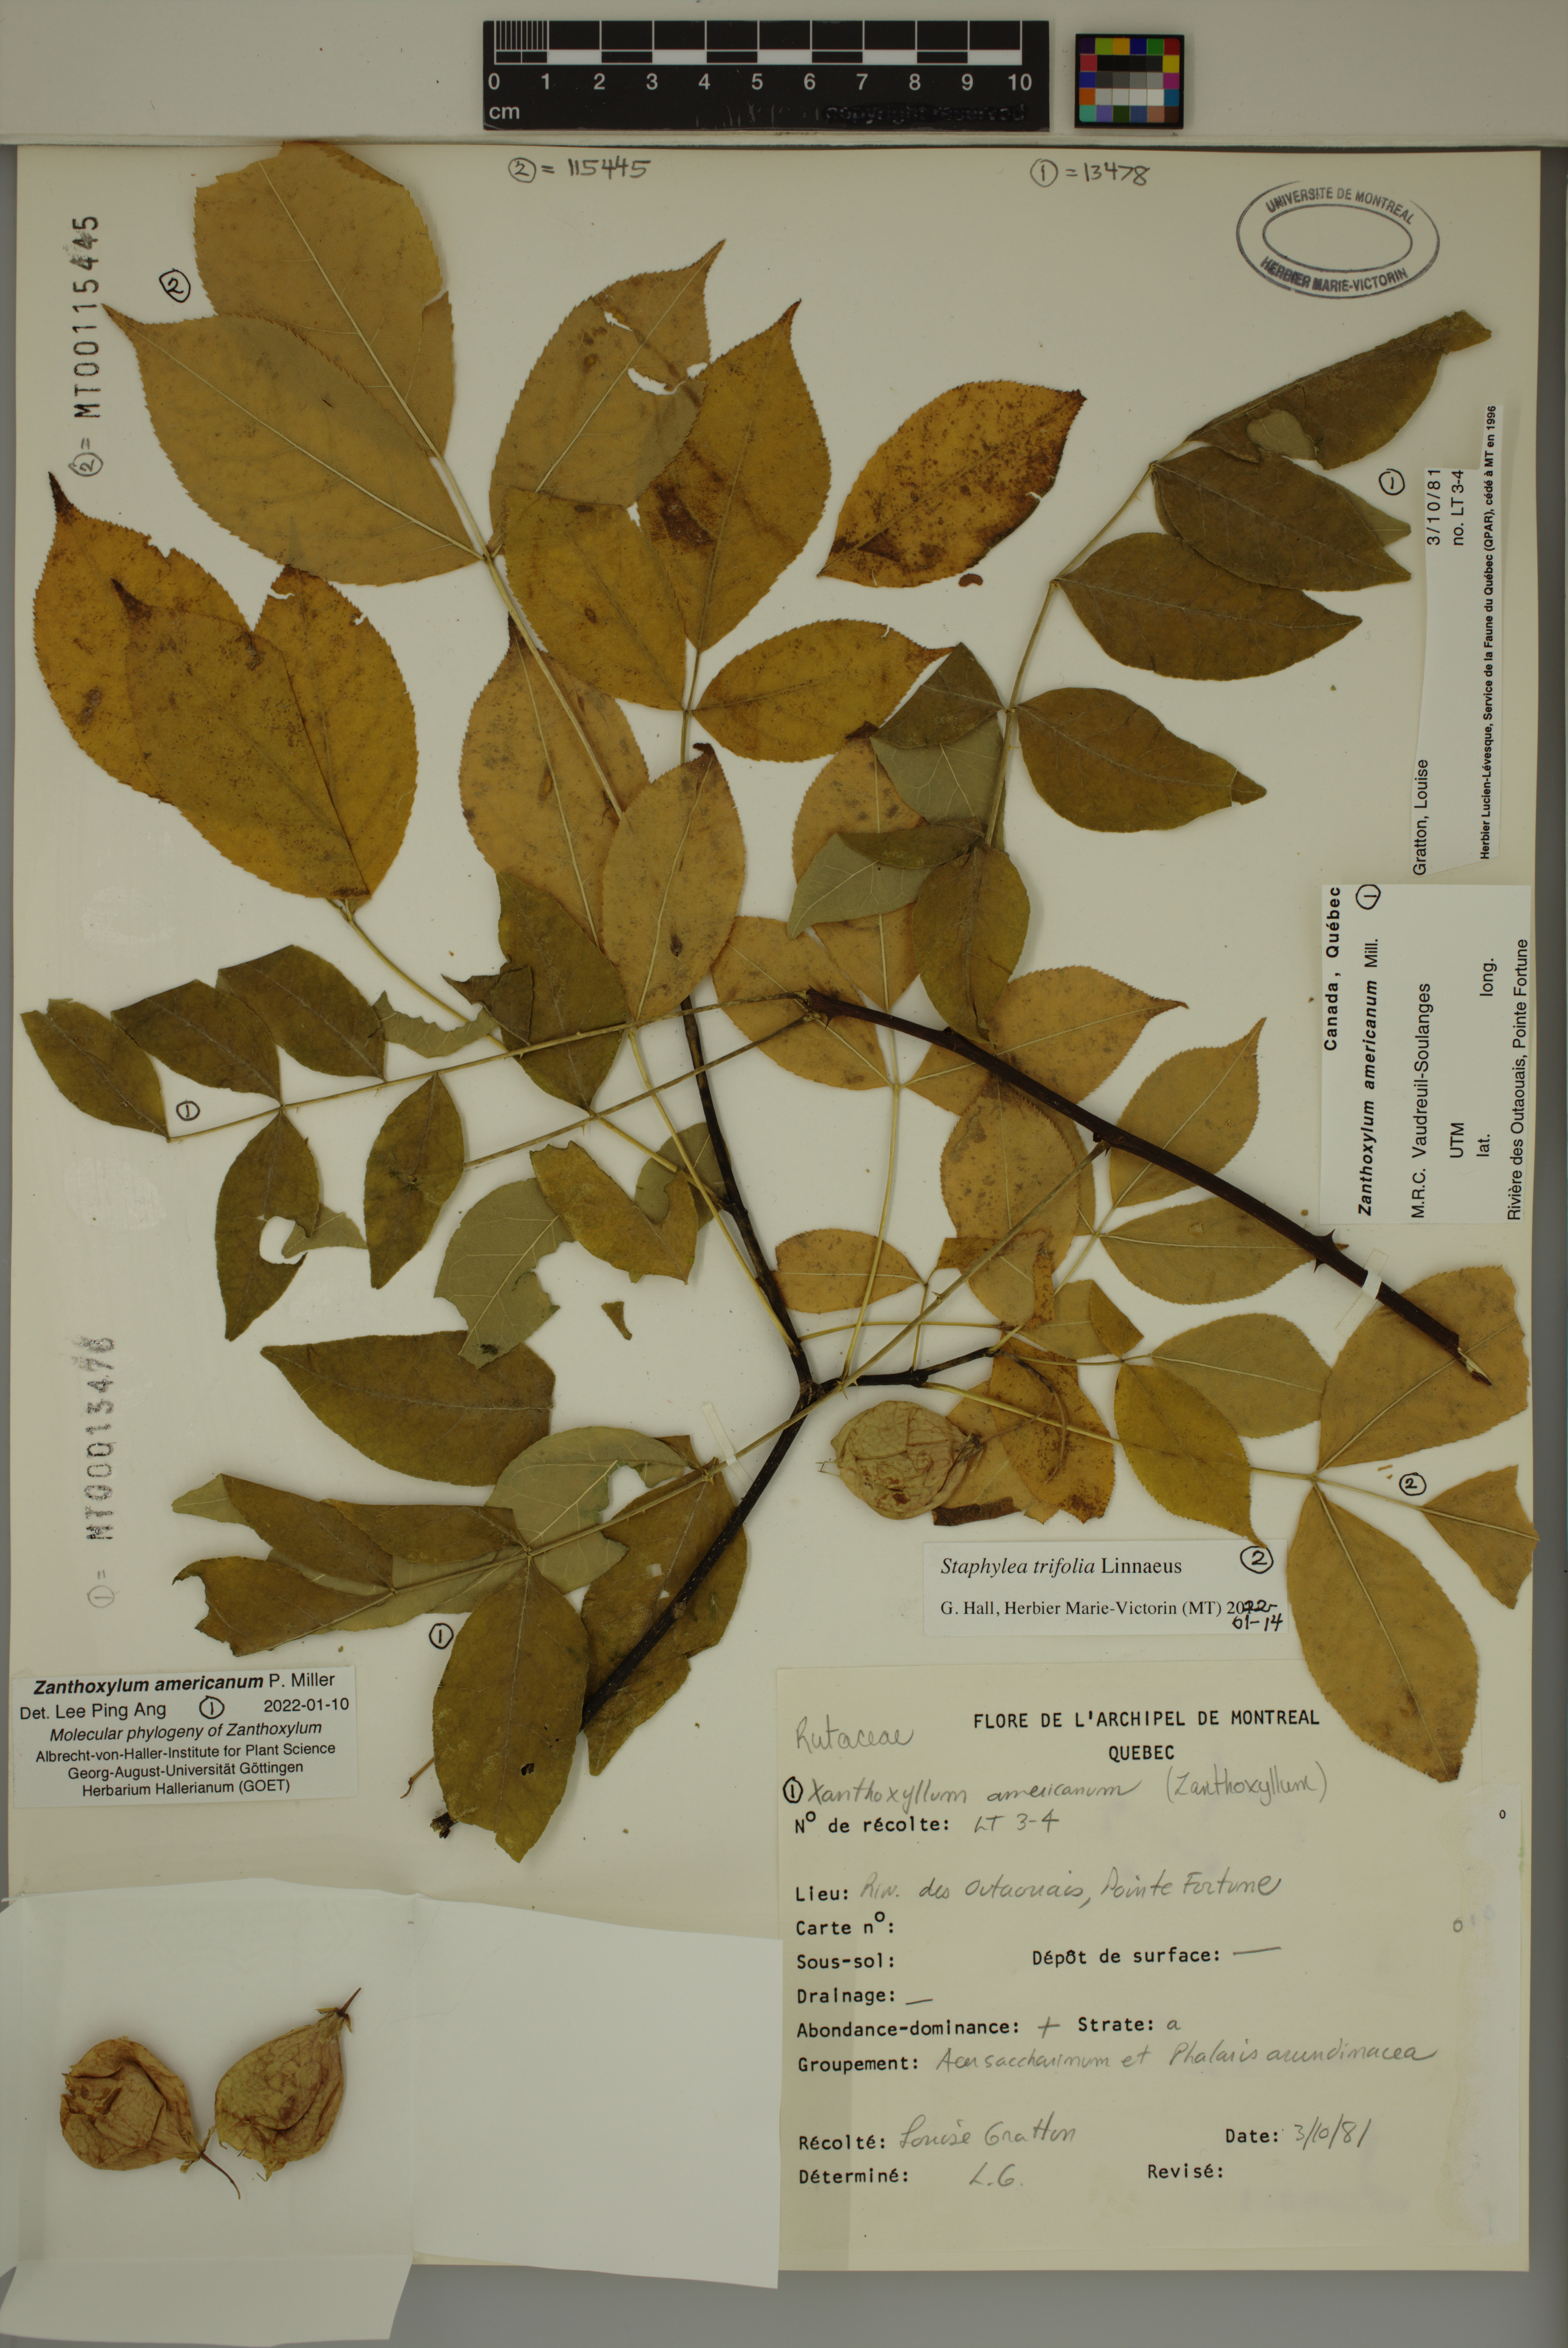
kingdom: Plantae
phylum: Tracheophyta
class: Magnoliopsida
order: Crossosomatales
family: Staphyleaceae
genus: Staphylea
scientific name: Staphylea trifolia
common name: American bladdernut
